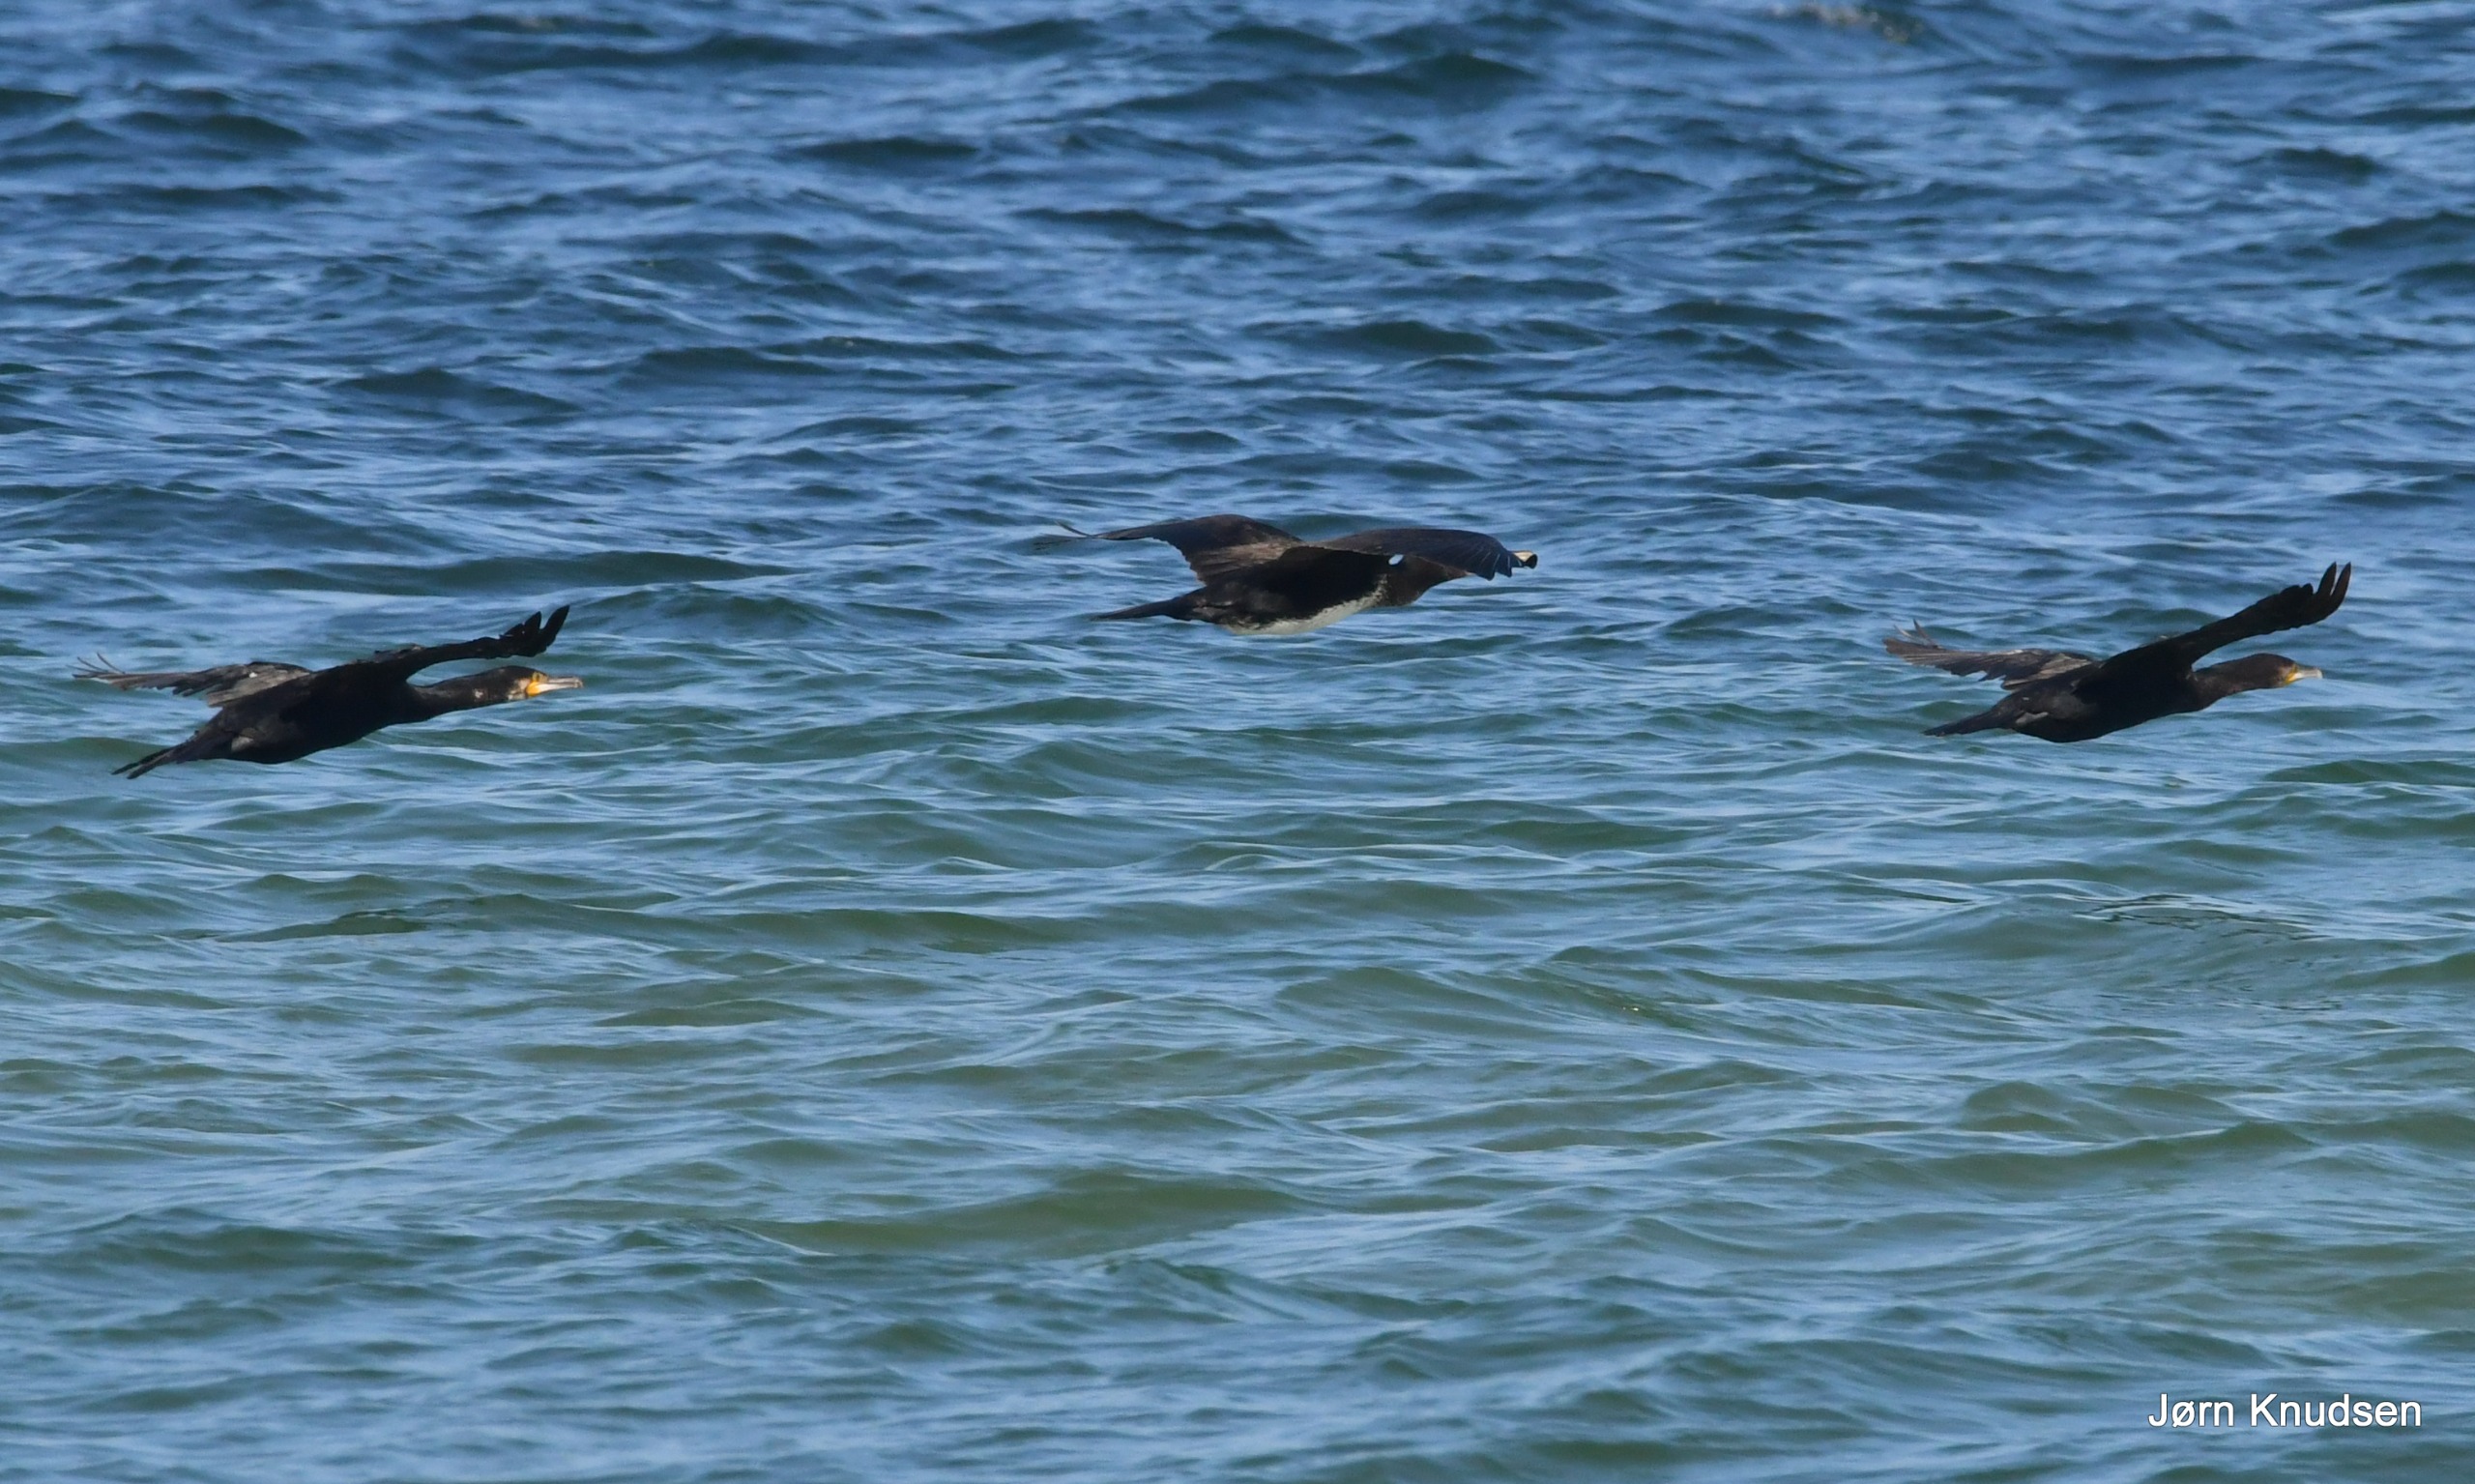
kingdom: Animalia
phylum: Chordata
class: Aves
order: Suliformes
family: Phalacrocoracidae
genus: Phalacrocorax
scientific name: Phalacrocorax carbo
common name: Skarv
